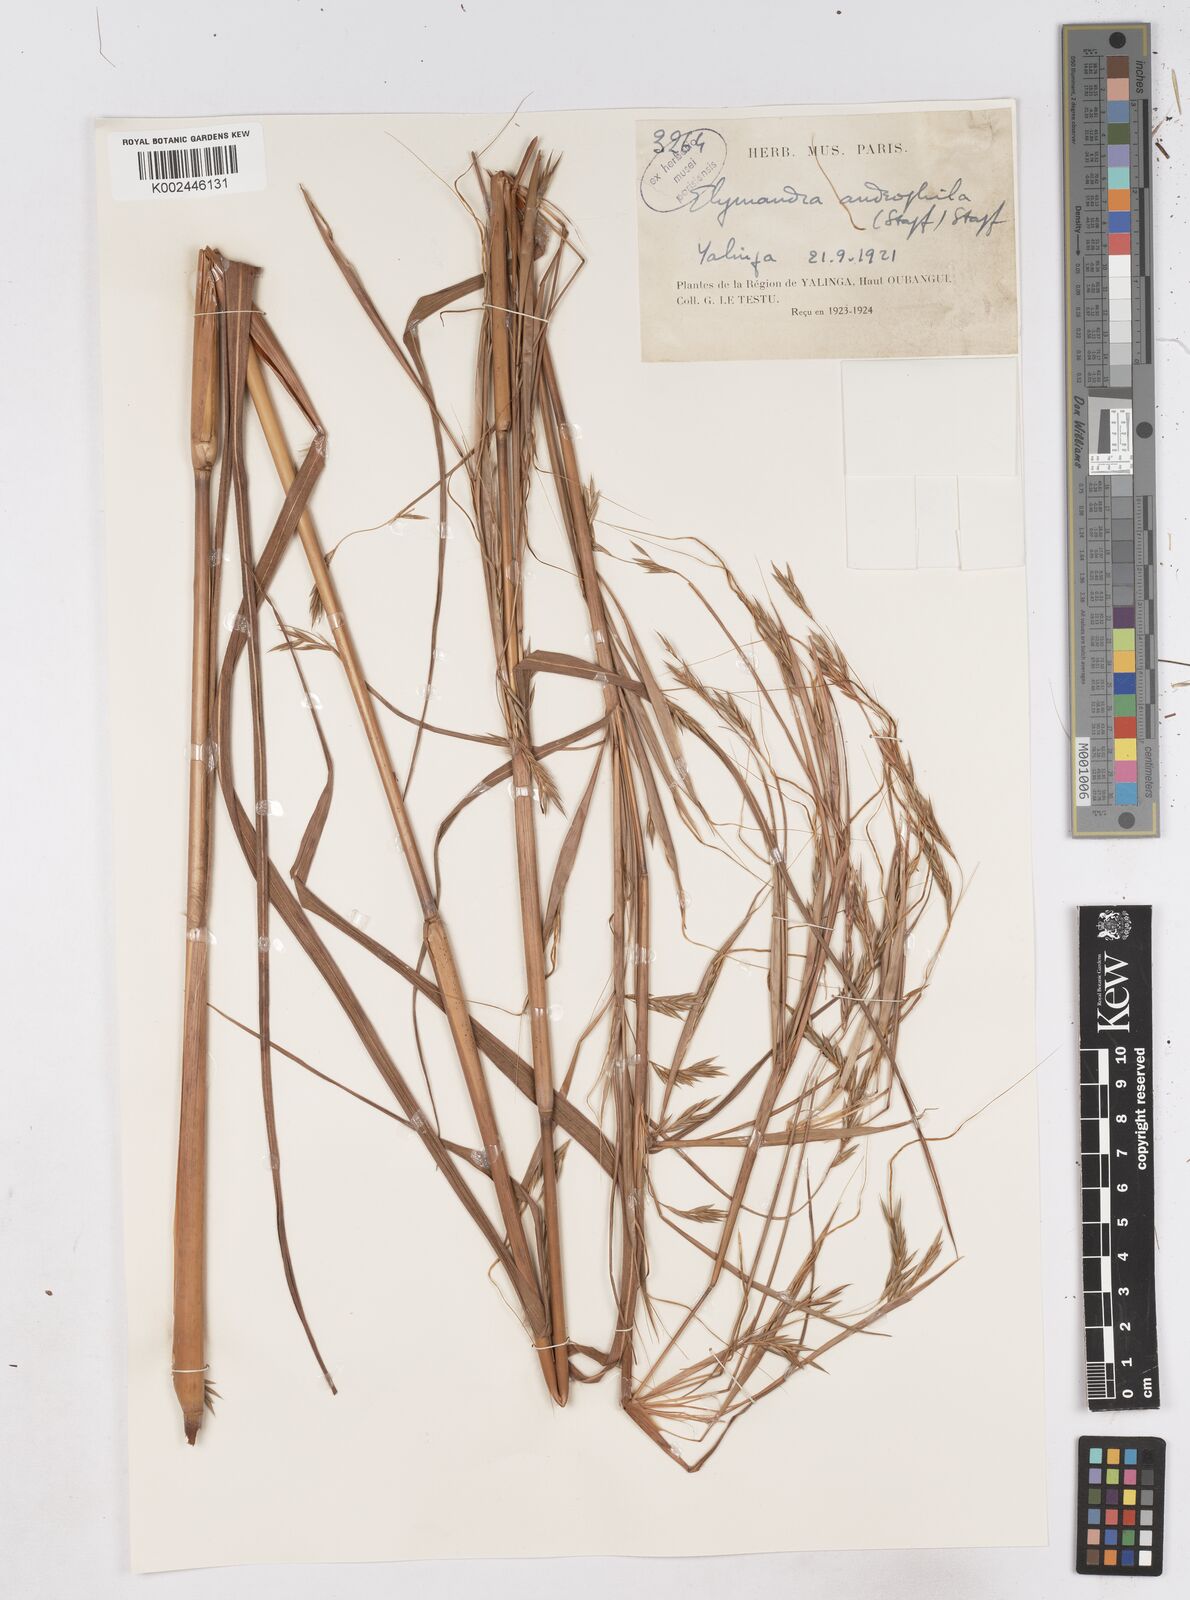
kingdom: Plantae
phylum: Tracheophyta
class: Liliopsida
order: Poales
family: Poaceae
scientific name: Poaceae
